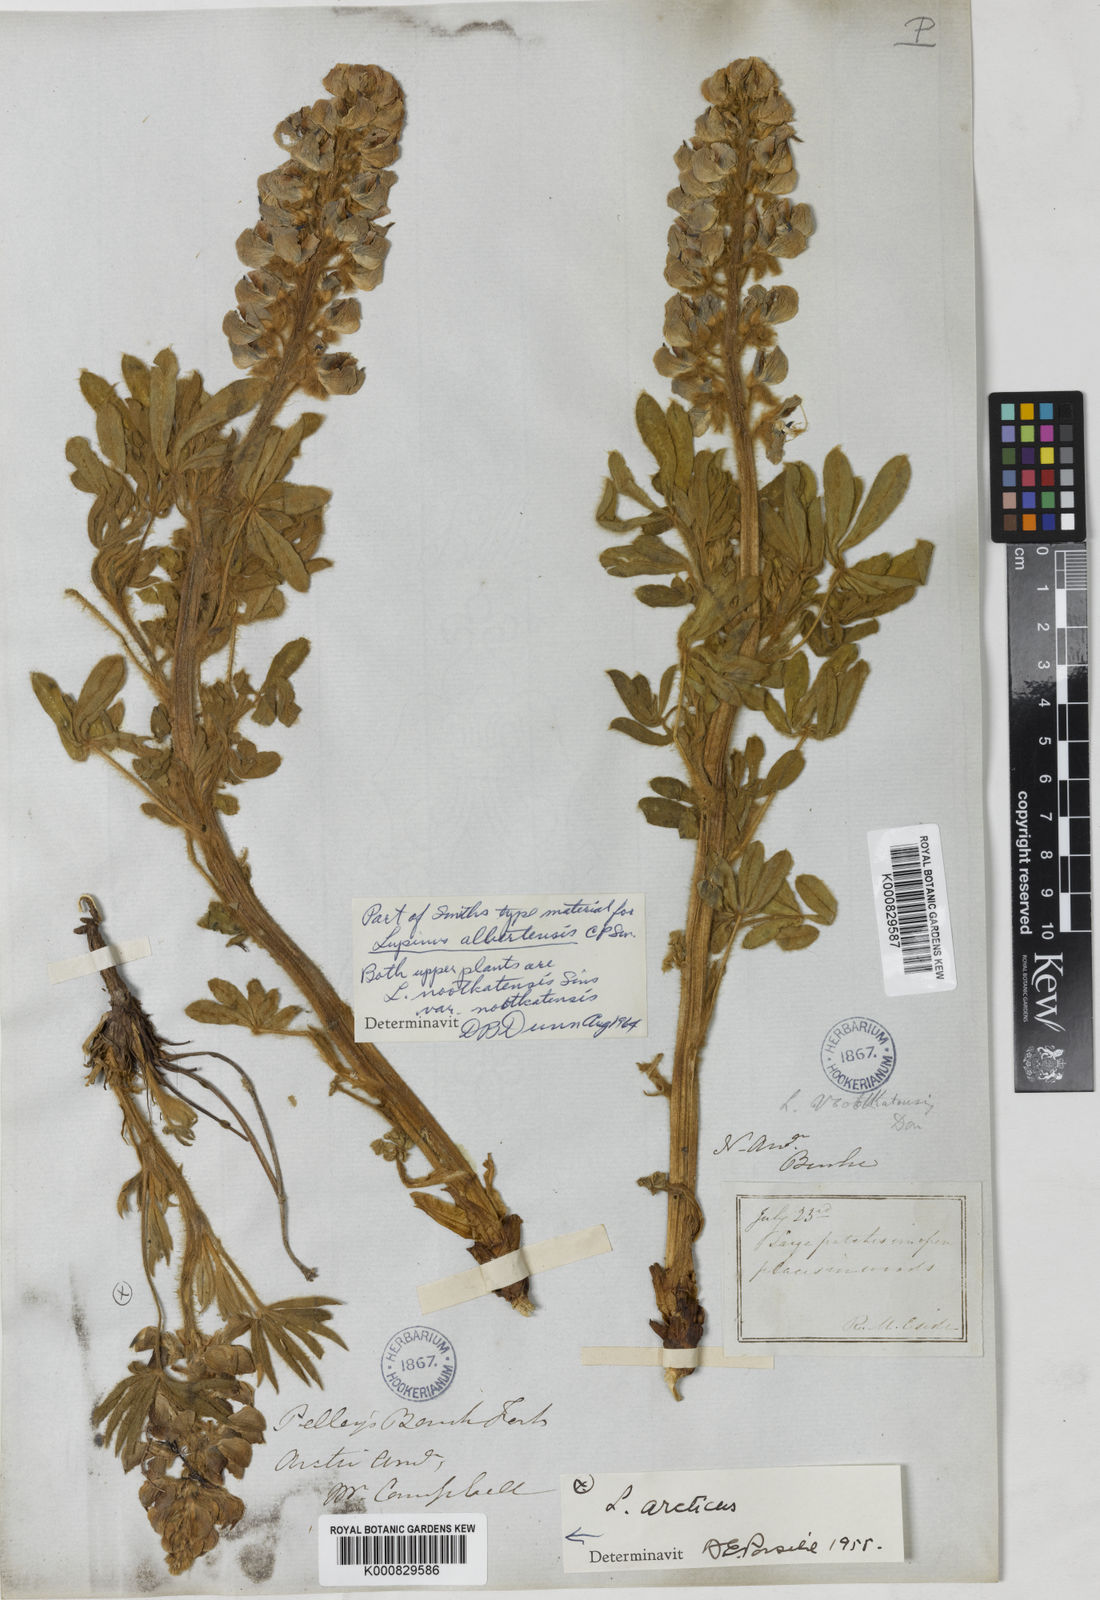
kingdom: Plantae
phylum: Tracheophyta
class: Magnoliopsida
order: Fabales
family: Fabaceae
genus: Lupinus
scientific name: Lupinus nootkatensis
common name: Nootka lupine
